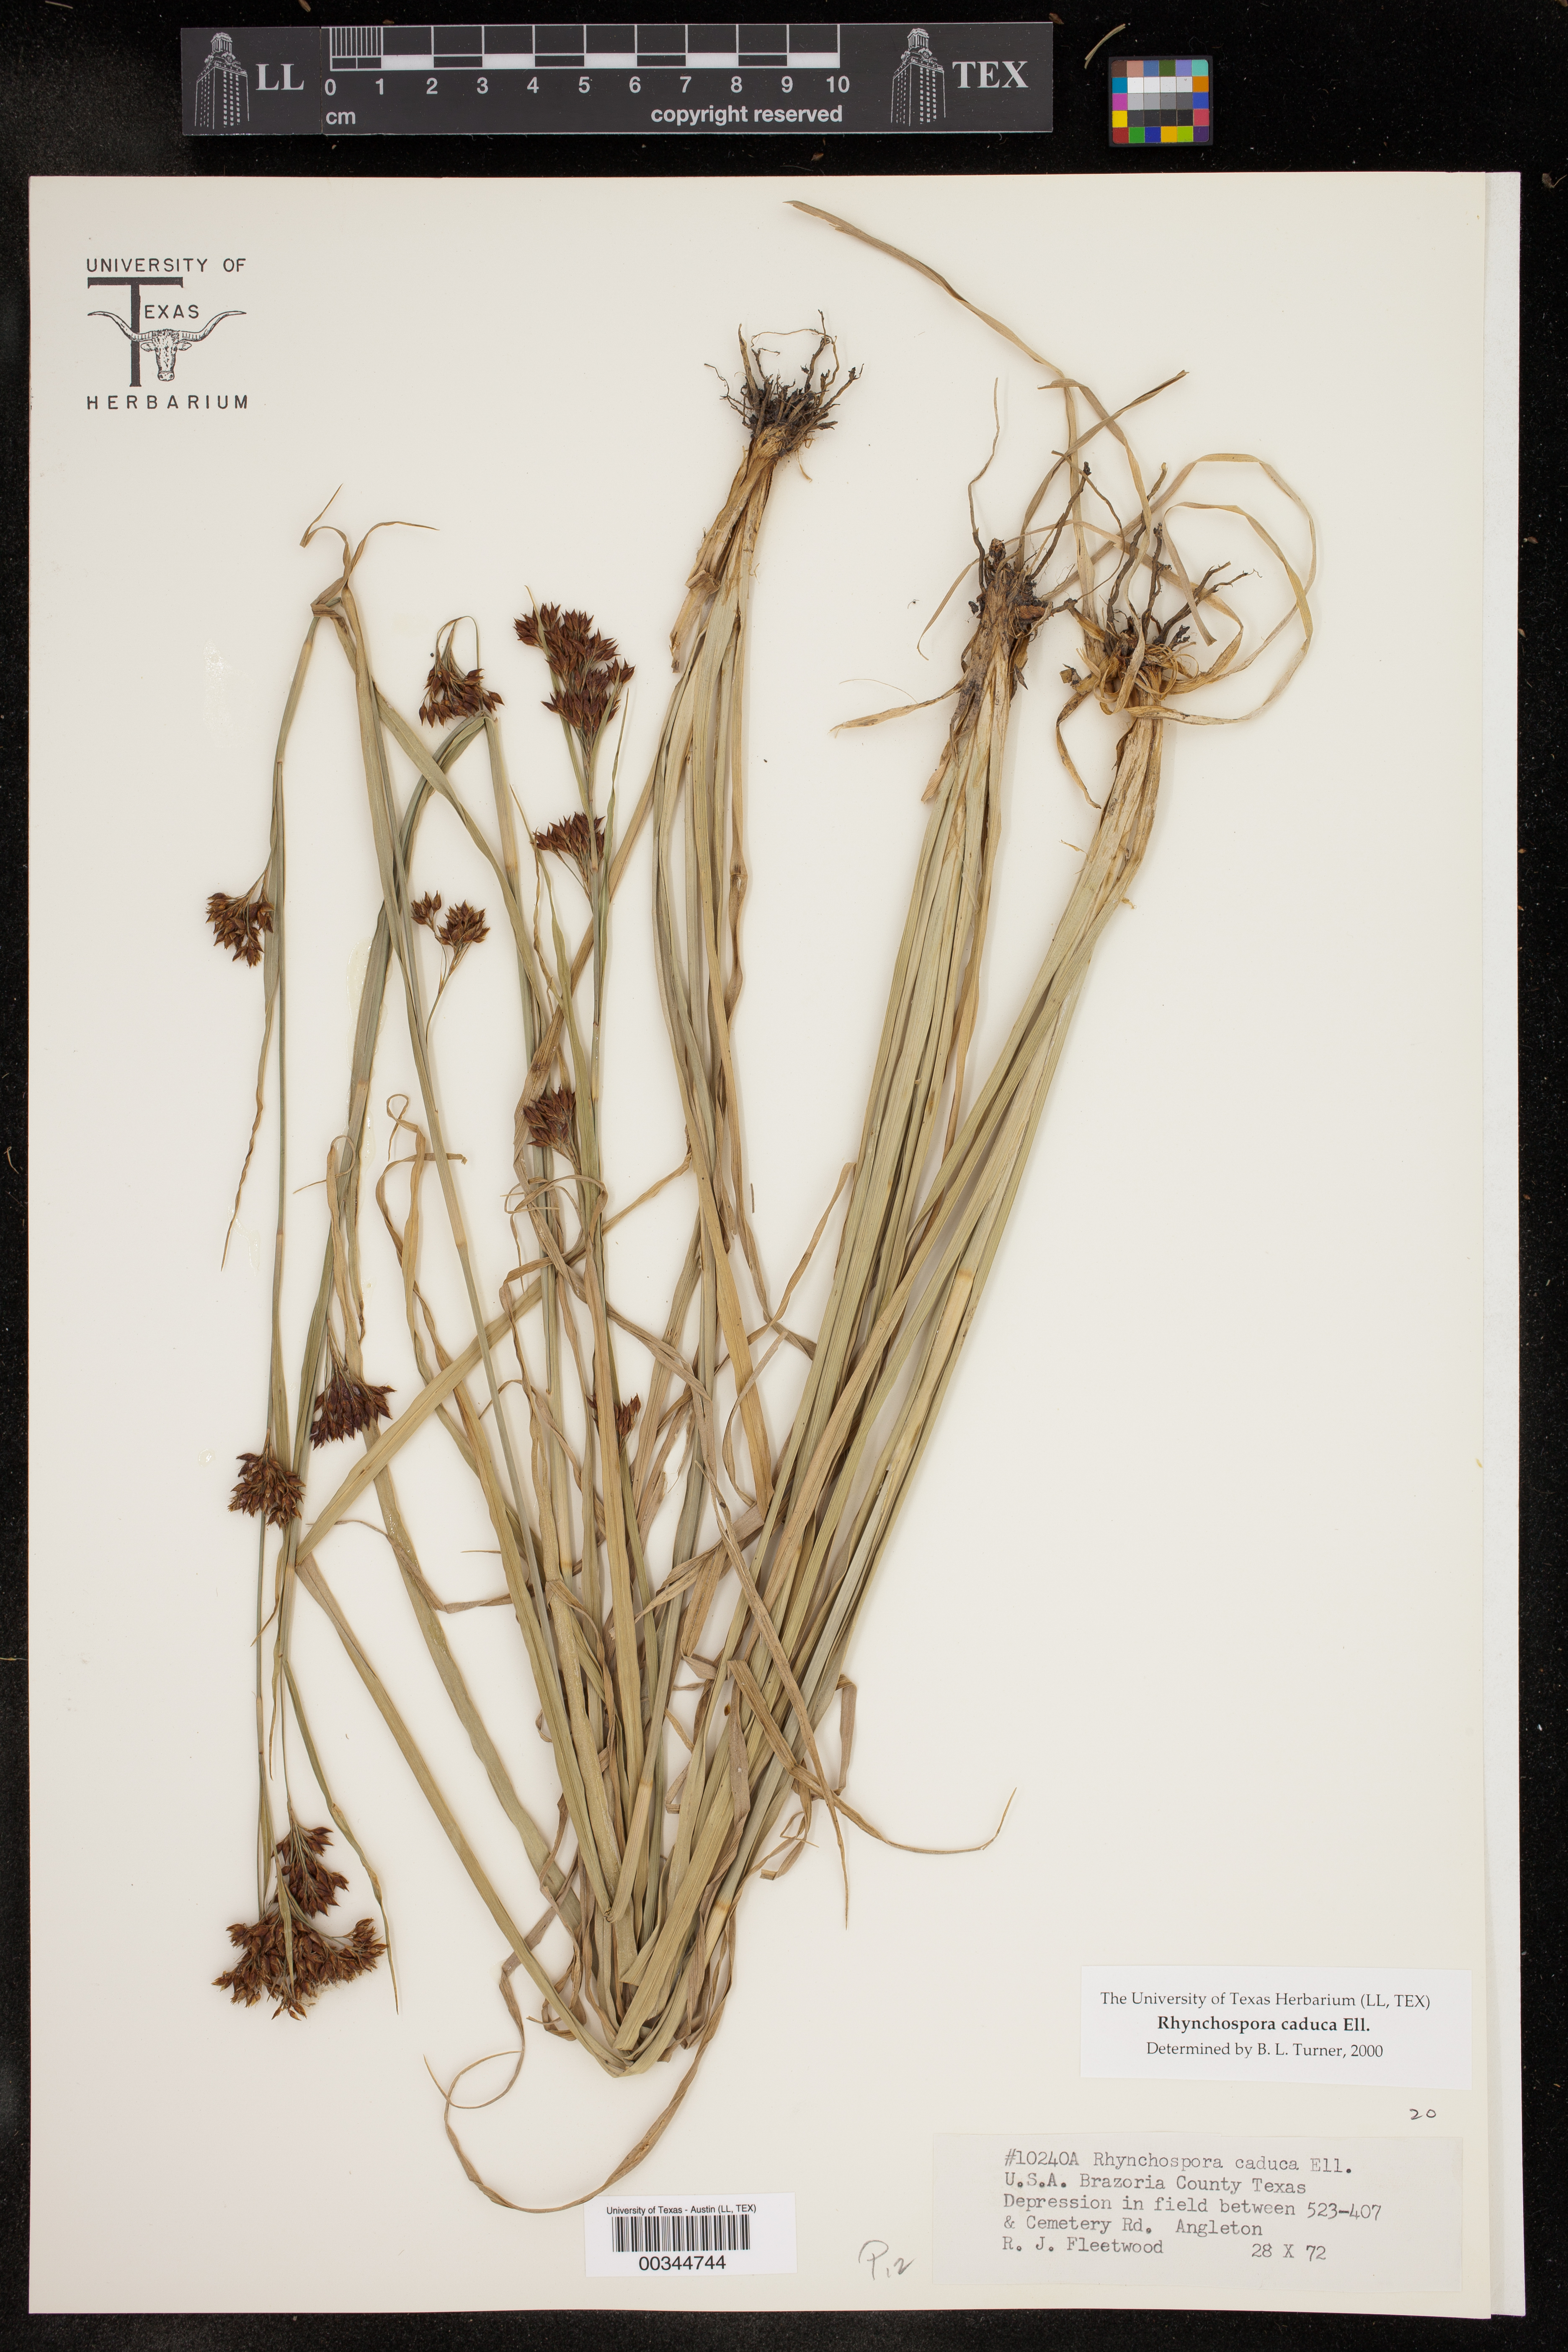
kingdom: Plantae
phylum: Tracheophyta
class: Liliopsida
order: Poales
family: Cyperaceae
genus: Rhynchospora
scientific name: Rhynchospora caduca
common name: Anglestem beaksedge
